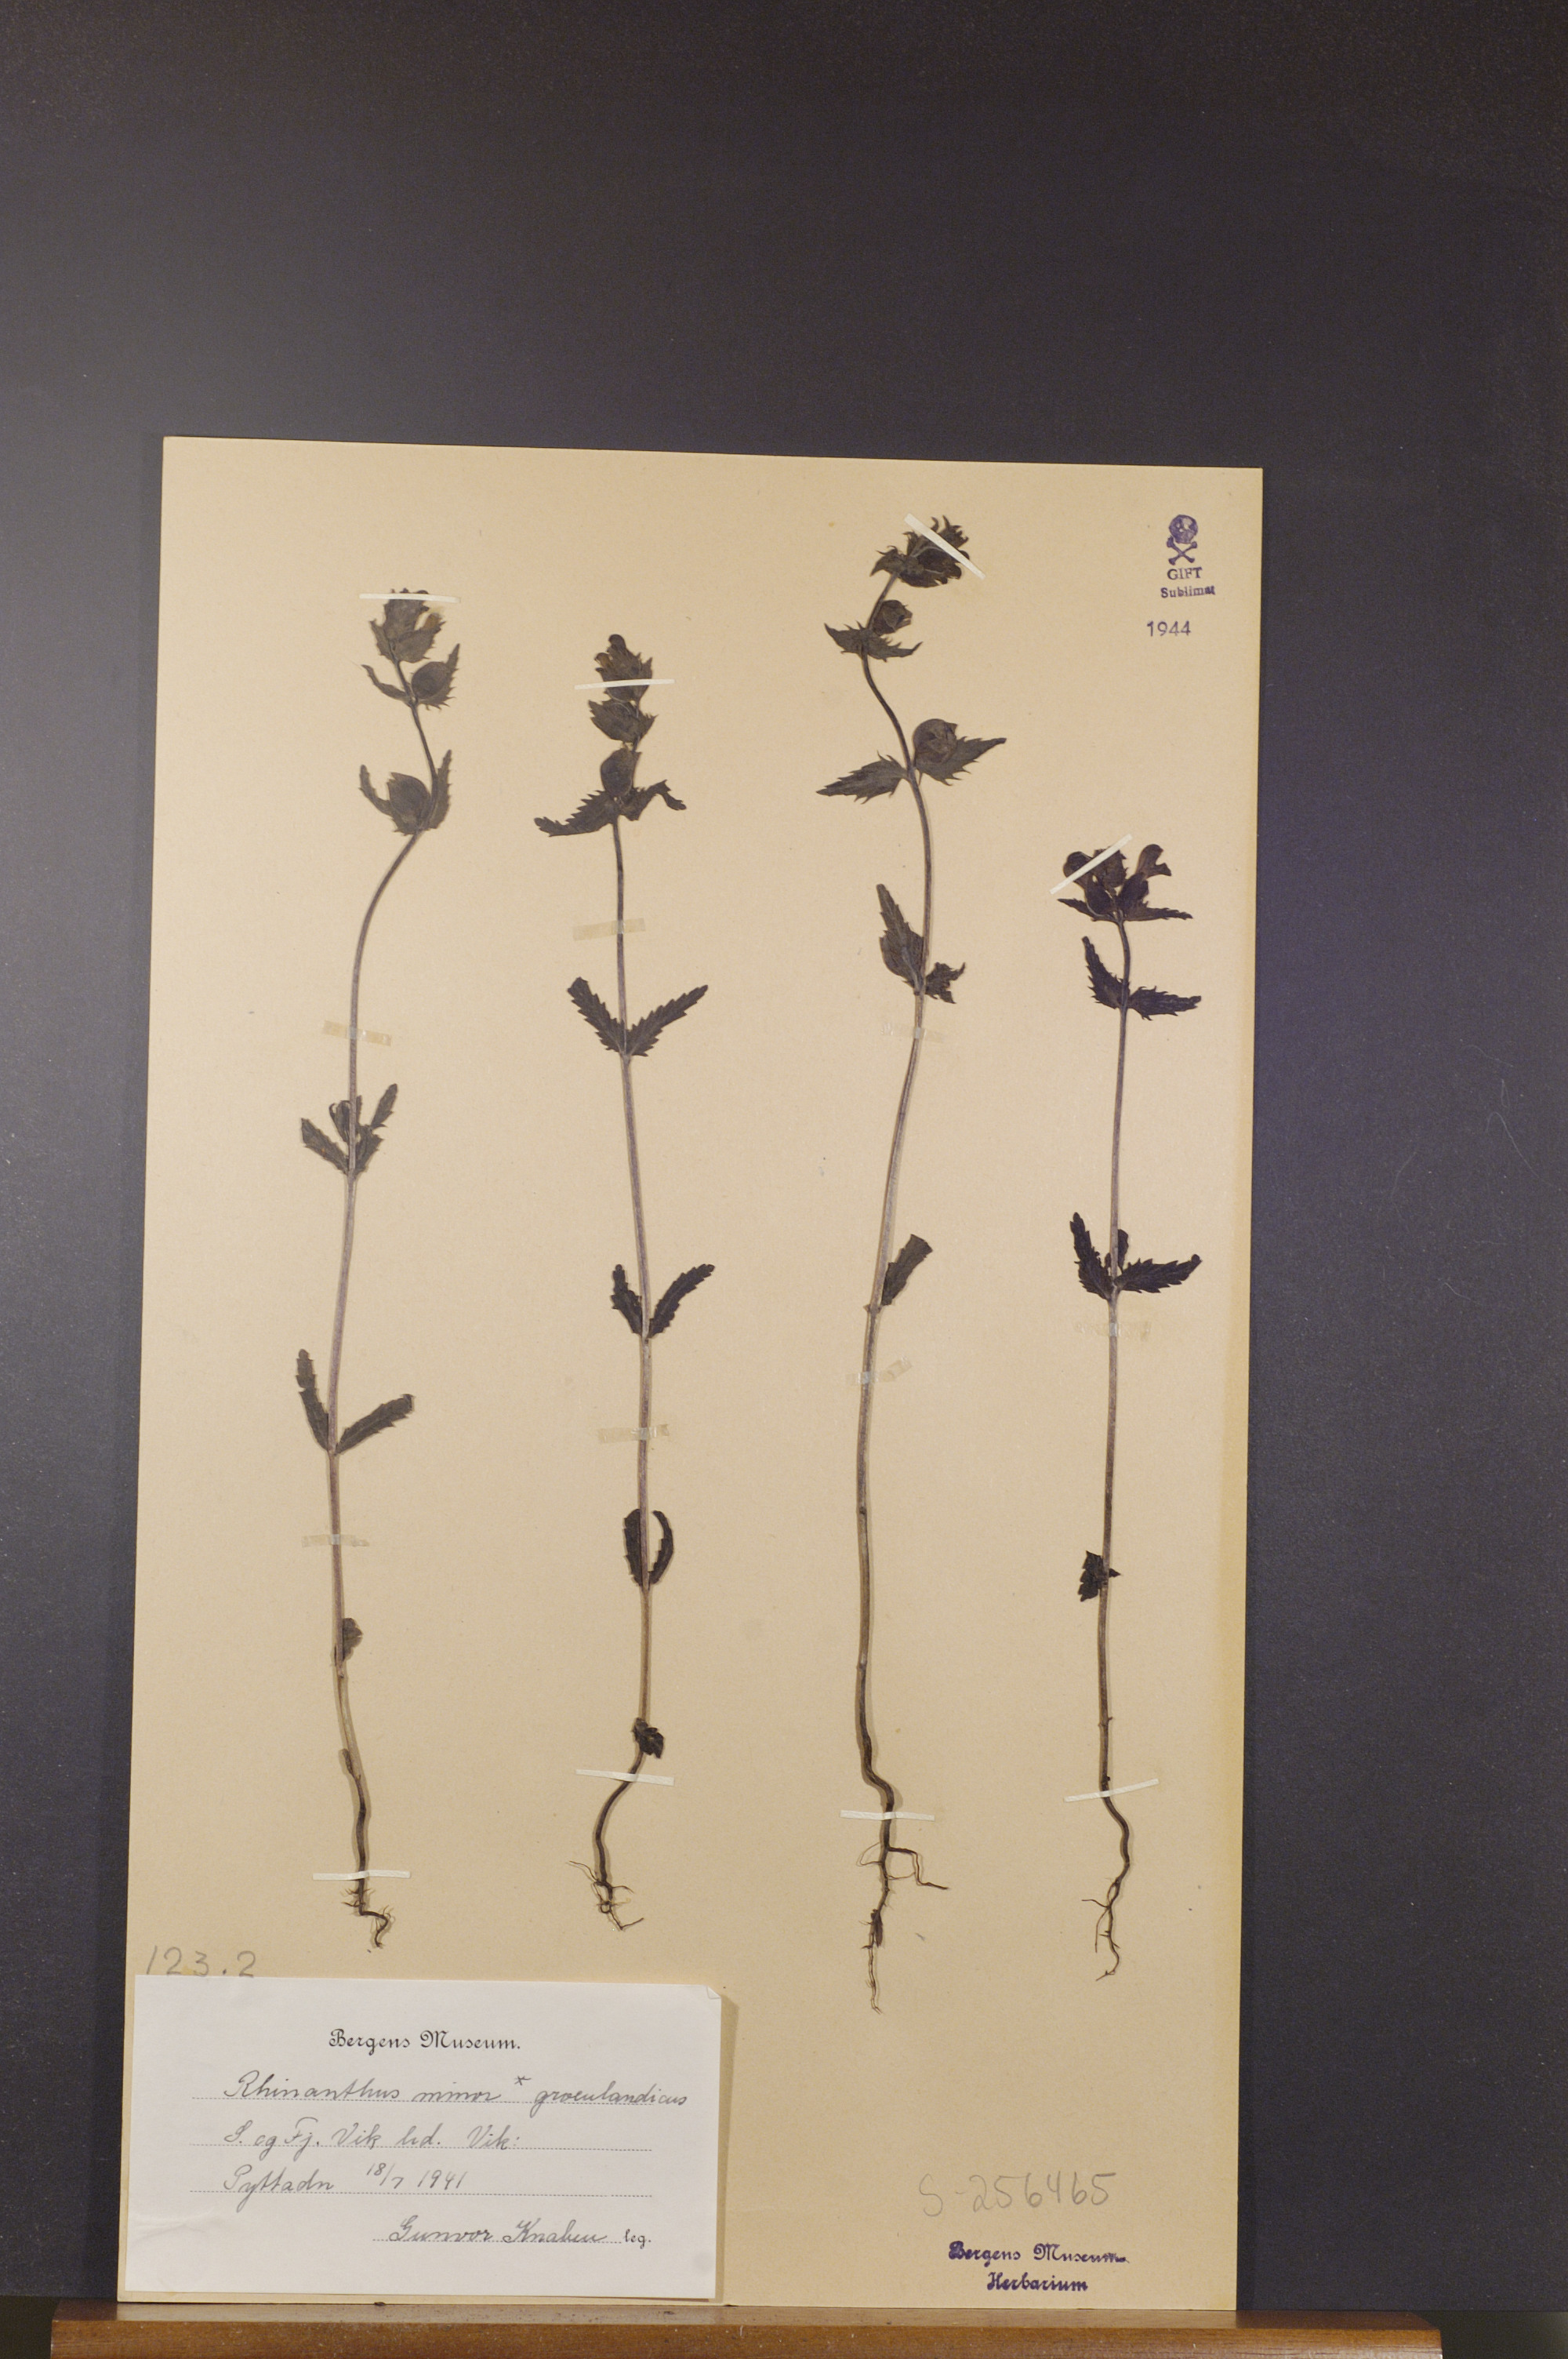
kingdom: Plantae
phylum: Tracheophyta
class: Magnoliopsida
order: Lamiales
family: Orobanchaceae
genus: Rhinanthus
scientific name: Rhinanthus groenlandicus
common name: Little yellow rattle
